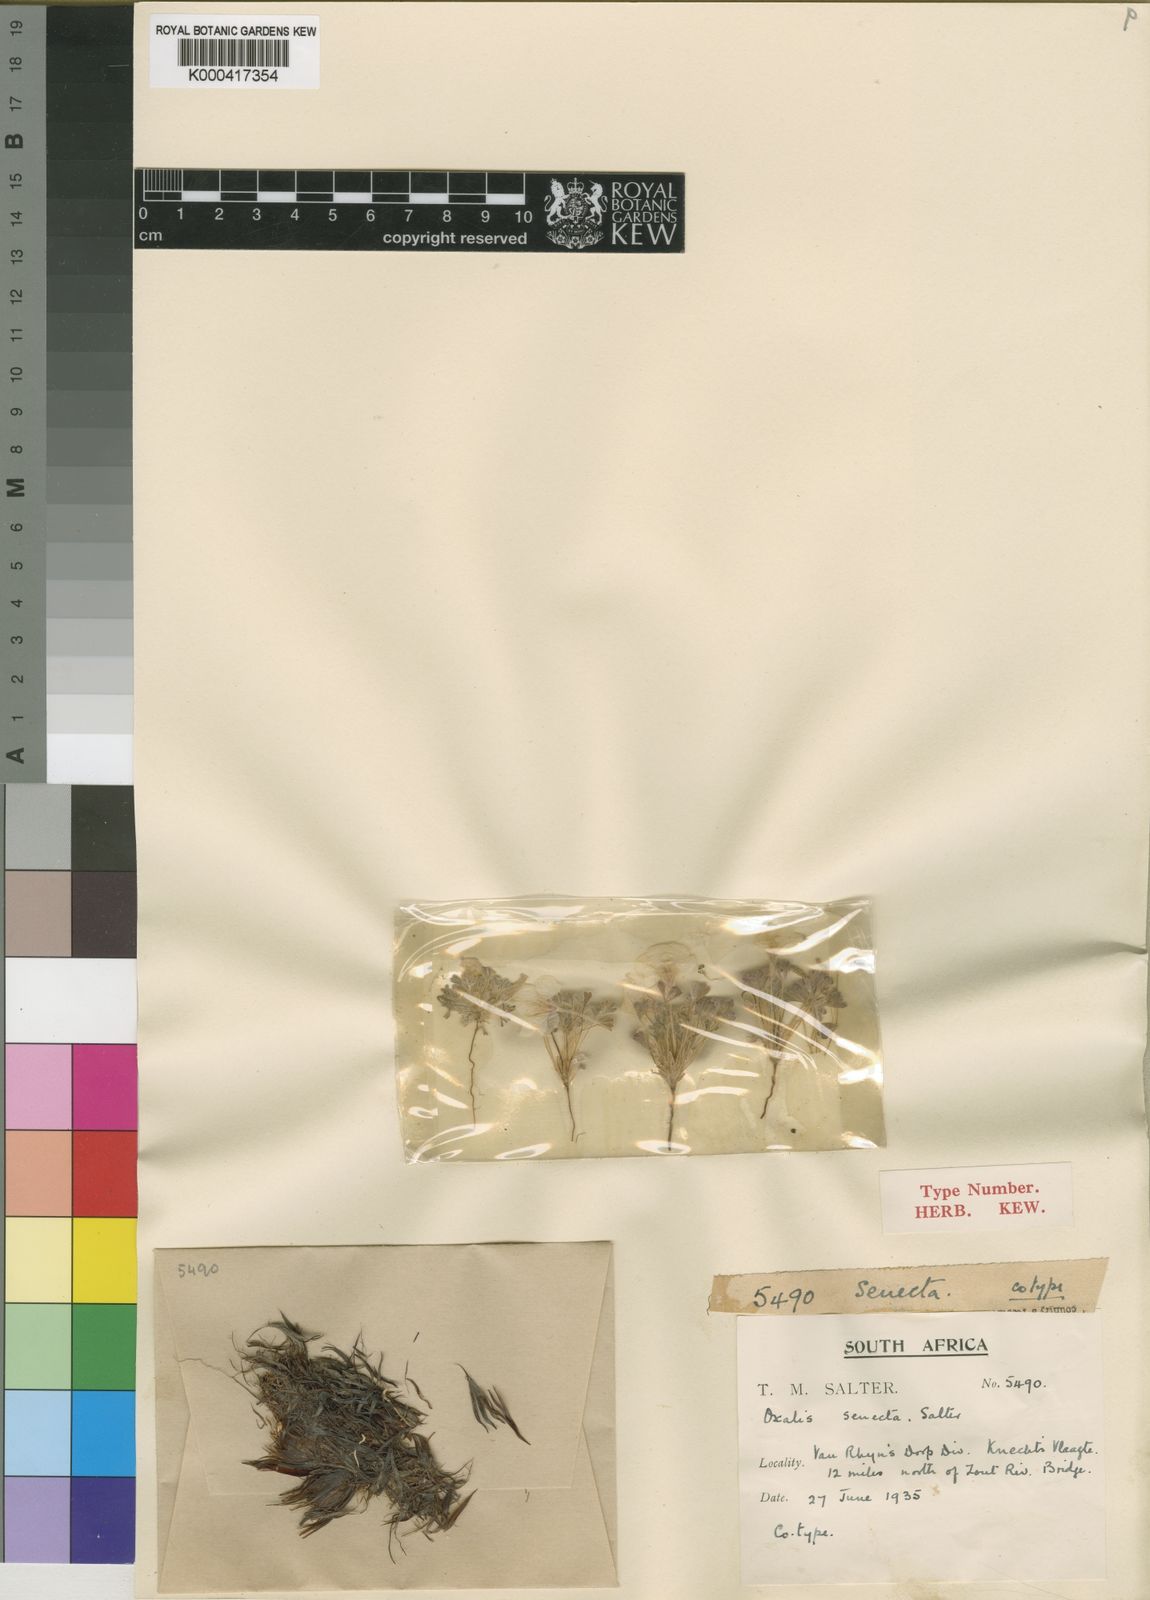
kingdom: Plantae
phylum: Tracheophyta
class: Magnoliopsida
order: Oxalidales
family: Oxalidaceae
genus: Oxalis
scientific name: Oxalis senecta
